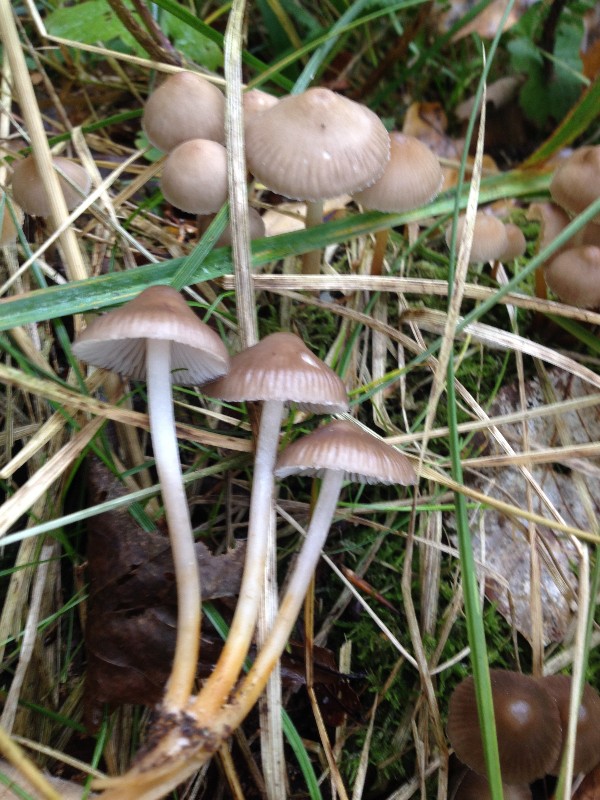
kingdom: Fungi
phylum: Basidiomycota
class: Agaricomycetes
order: Agaricales
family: Physalacriaceae
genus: Hymenopellis
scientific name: Hymenopellis radicata
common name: almindelig pælerodshat
